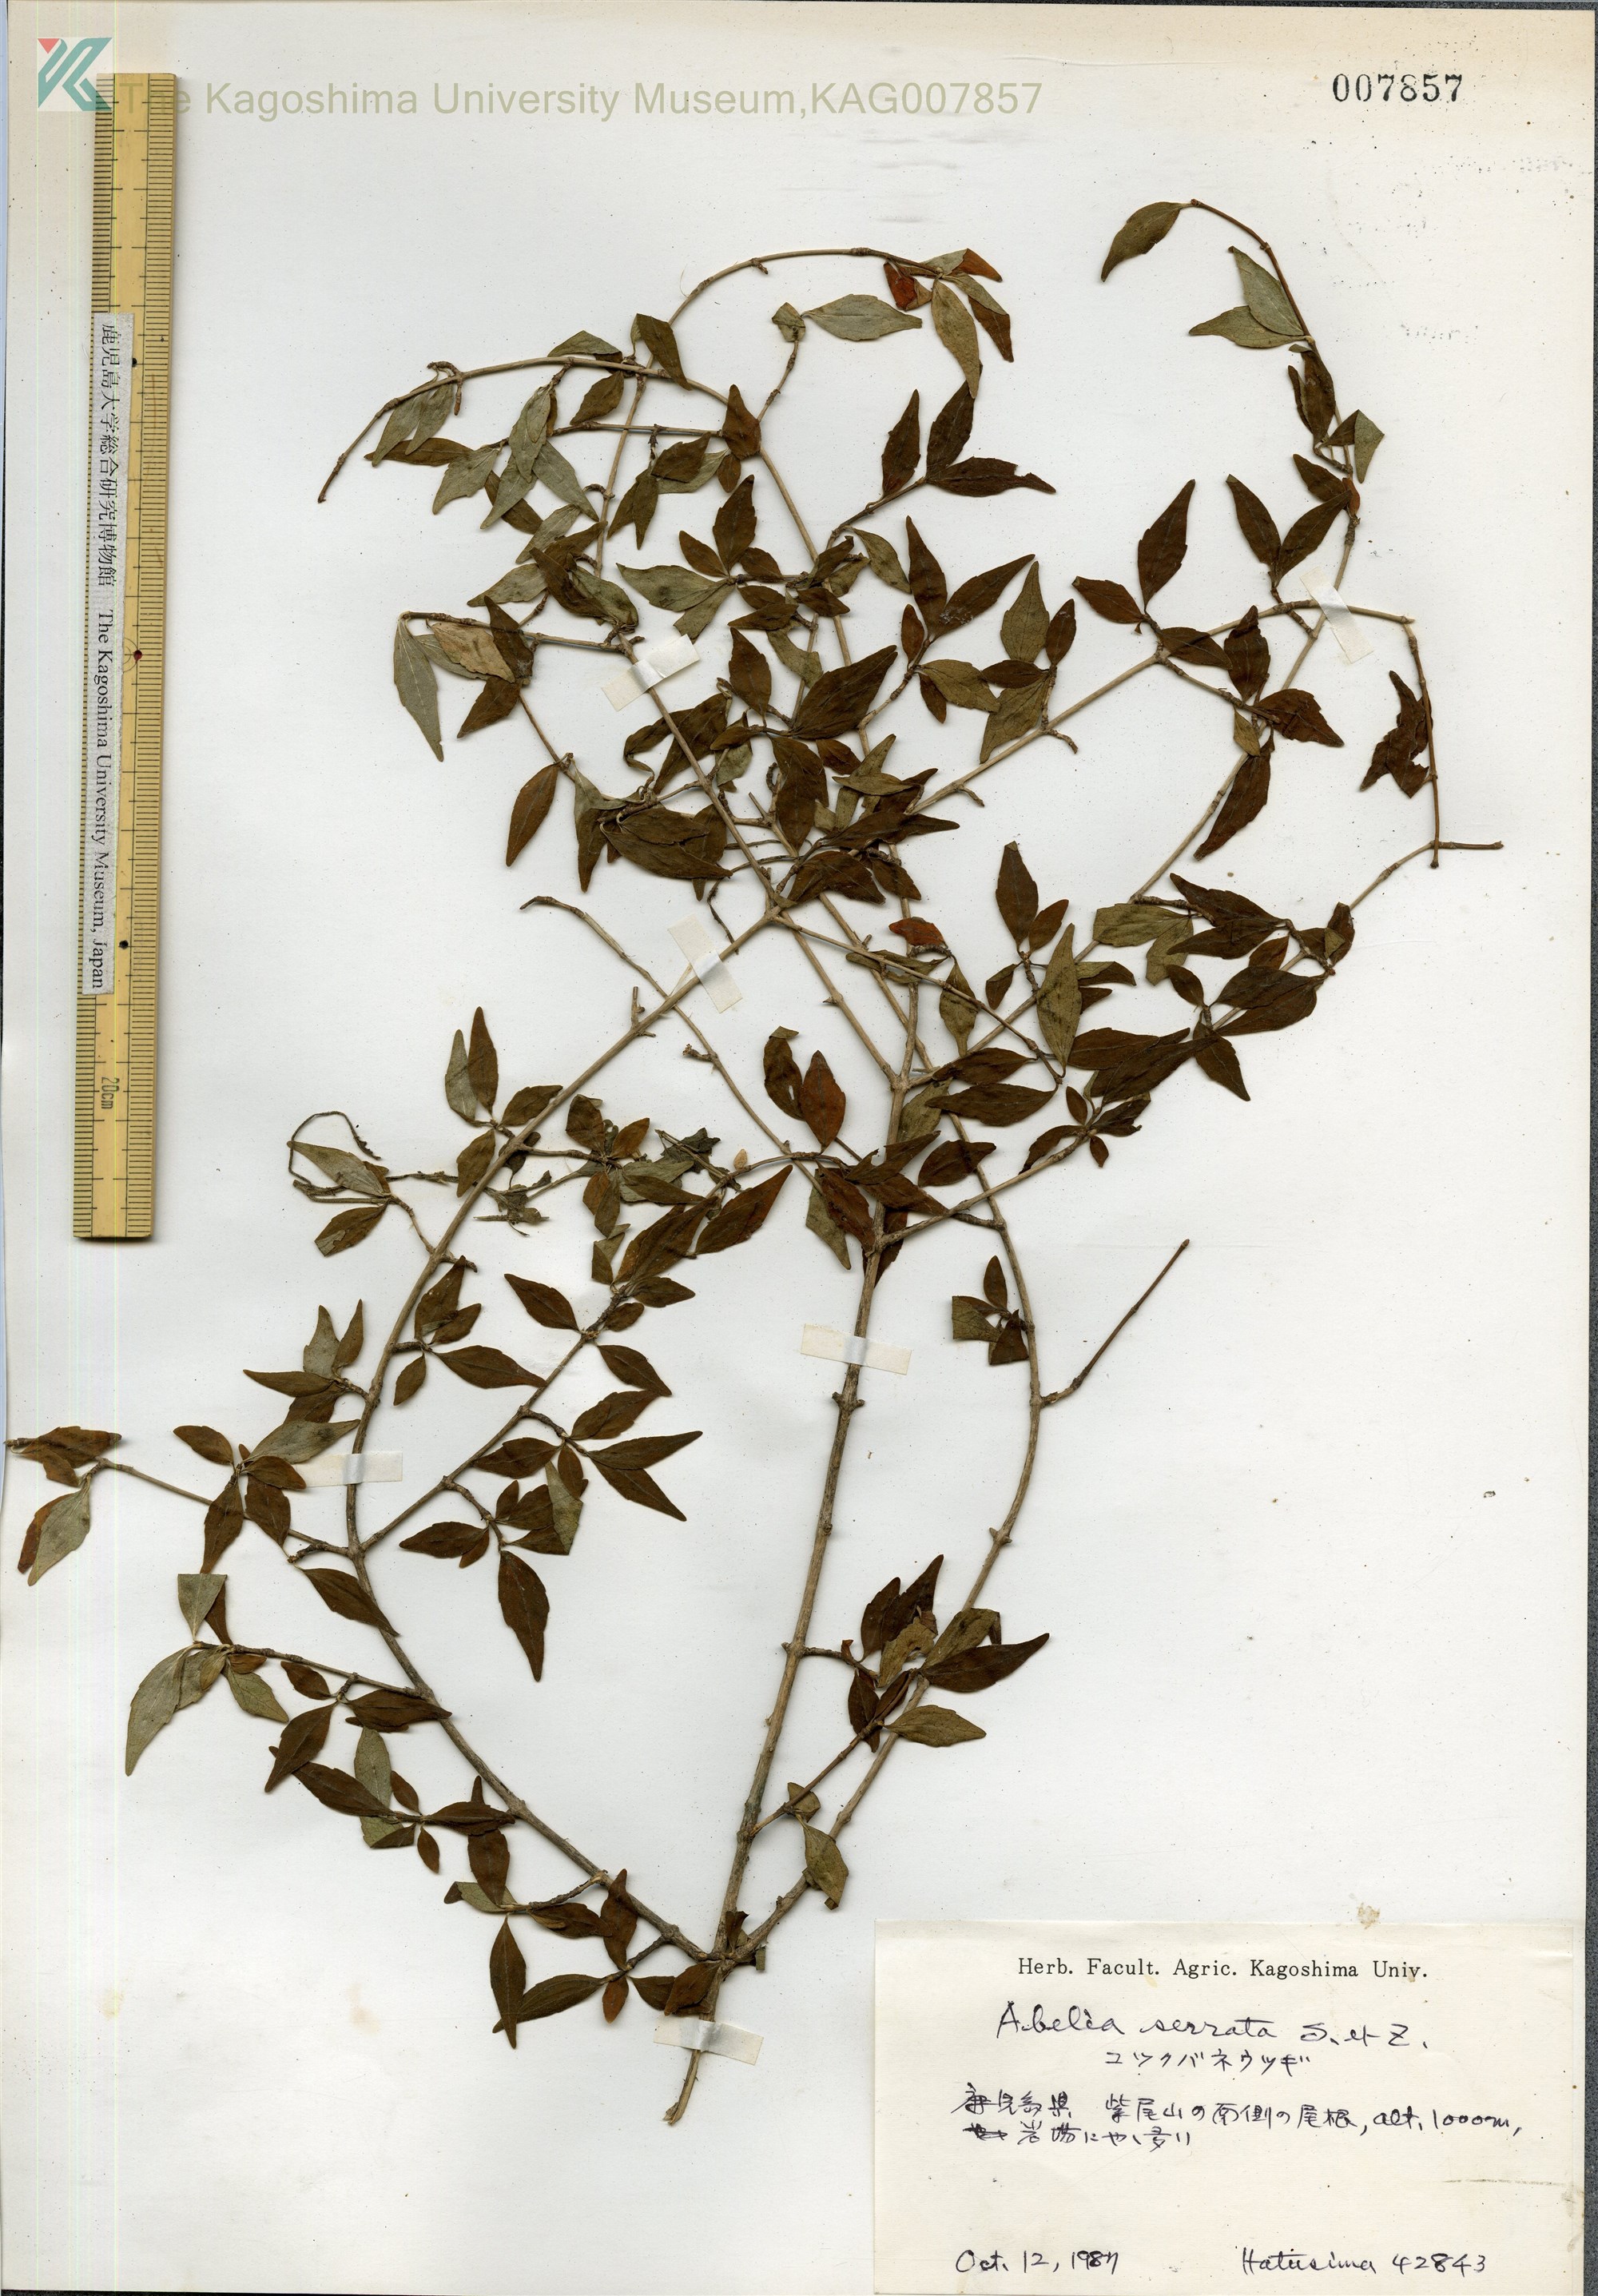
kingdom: Plantae
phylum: Tracheophyta
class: Magnoliopsida
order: Dipsacales
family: Caprifoliaceae
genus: Diabelia
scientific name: Diabelia serrata
